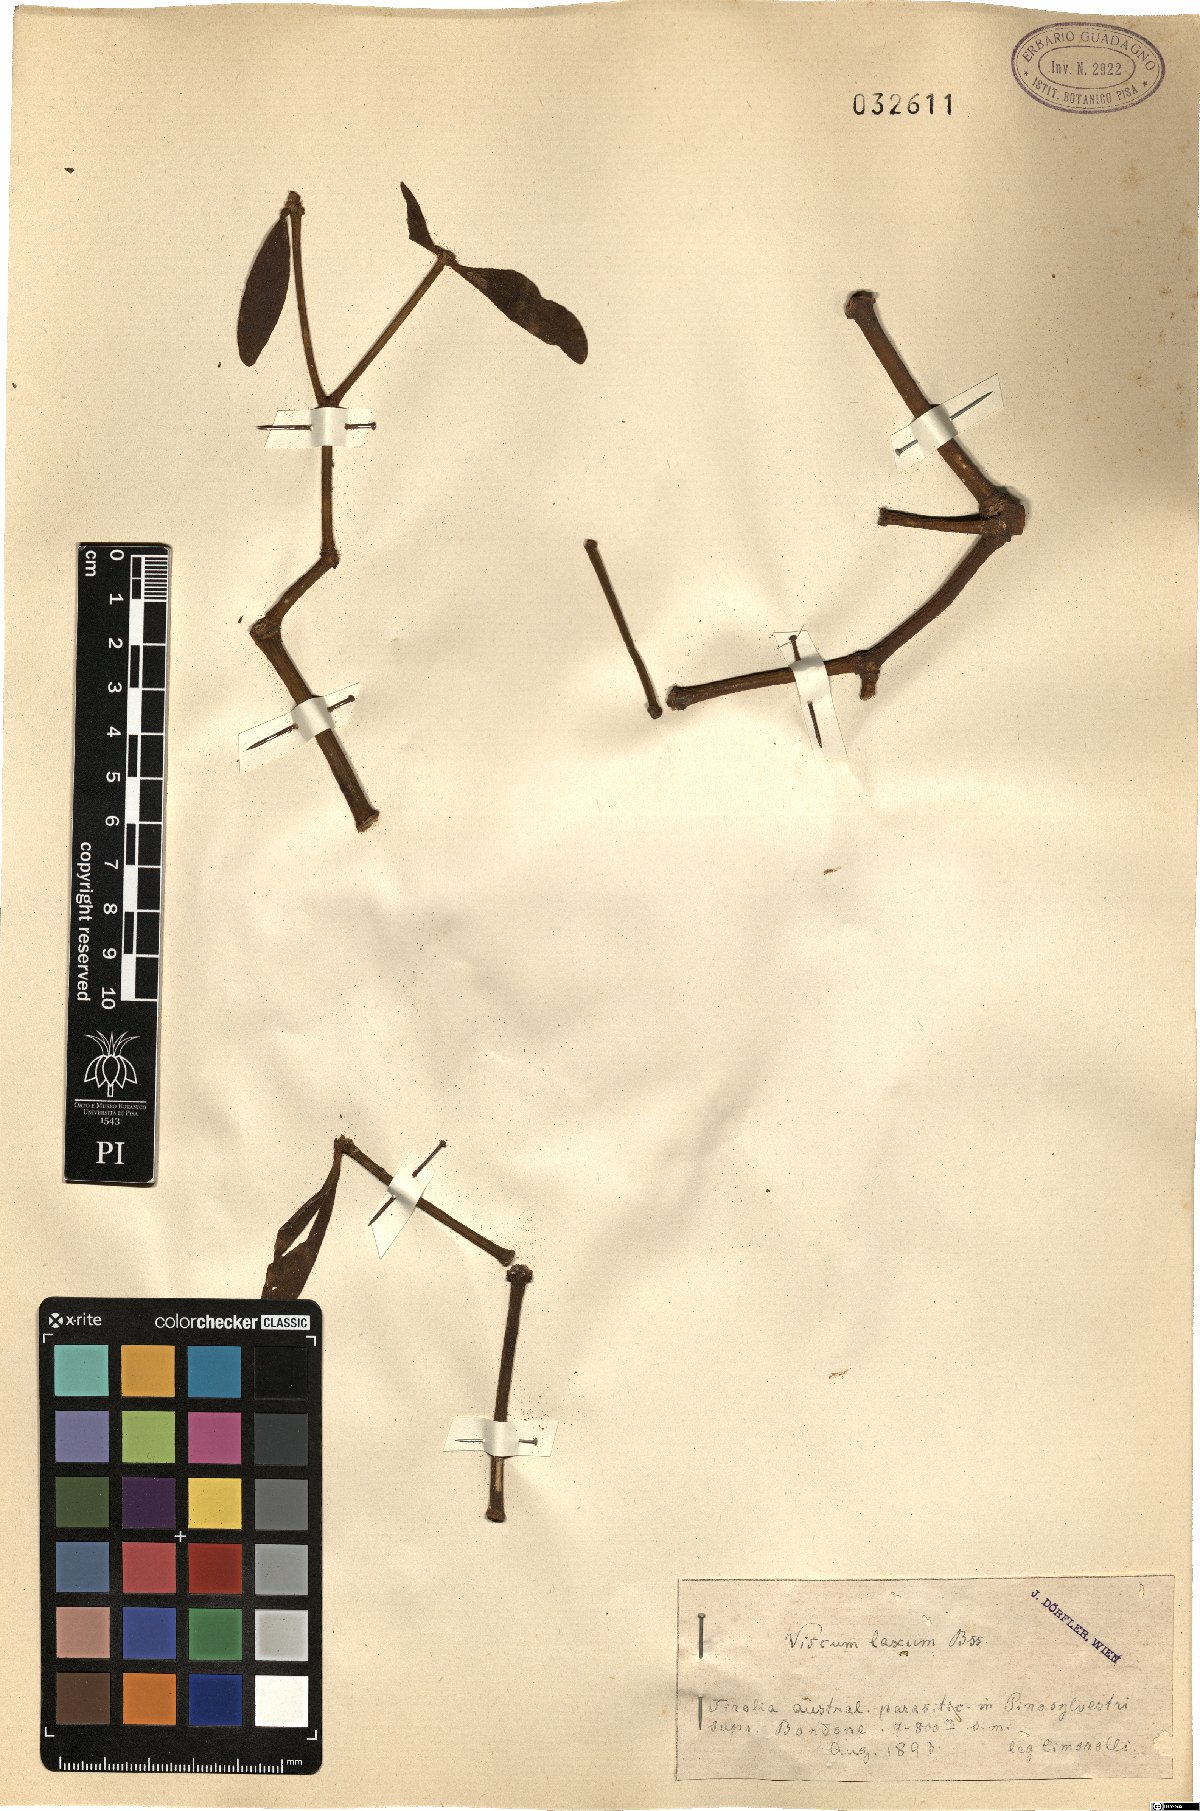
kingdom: Plantae
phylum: Tracheophyta
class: Magnoliopsida
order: Santalales
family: Viscaceae
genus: Viscum
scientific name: Viscum laxum
